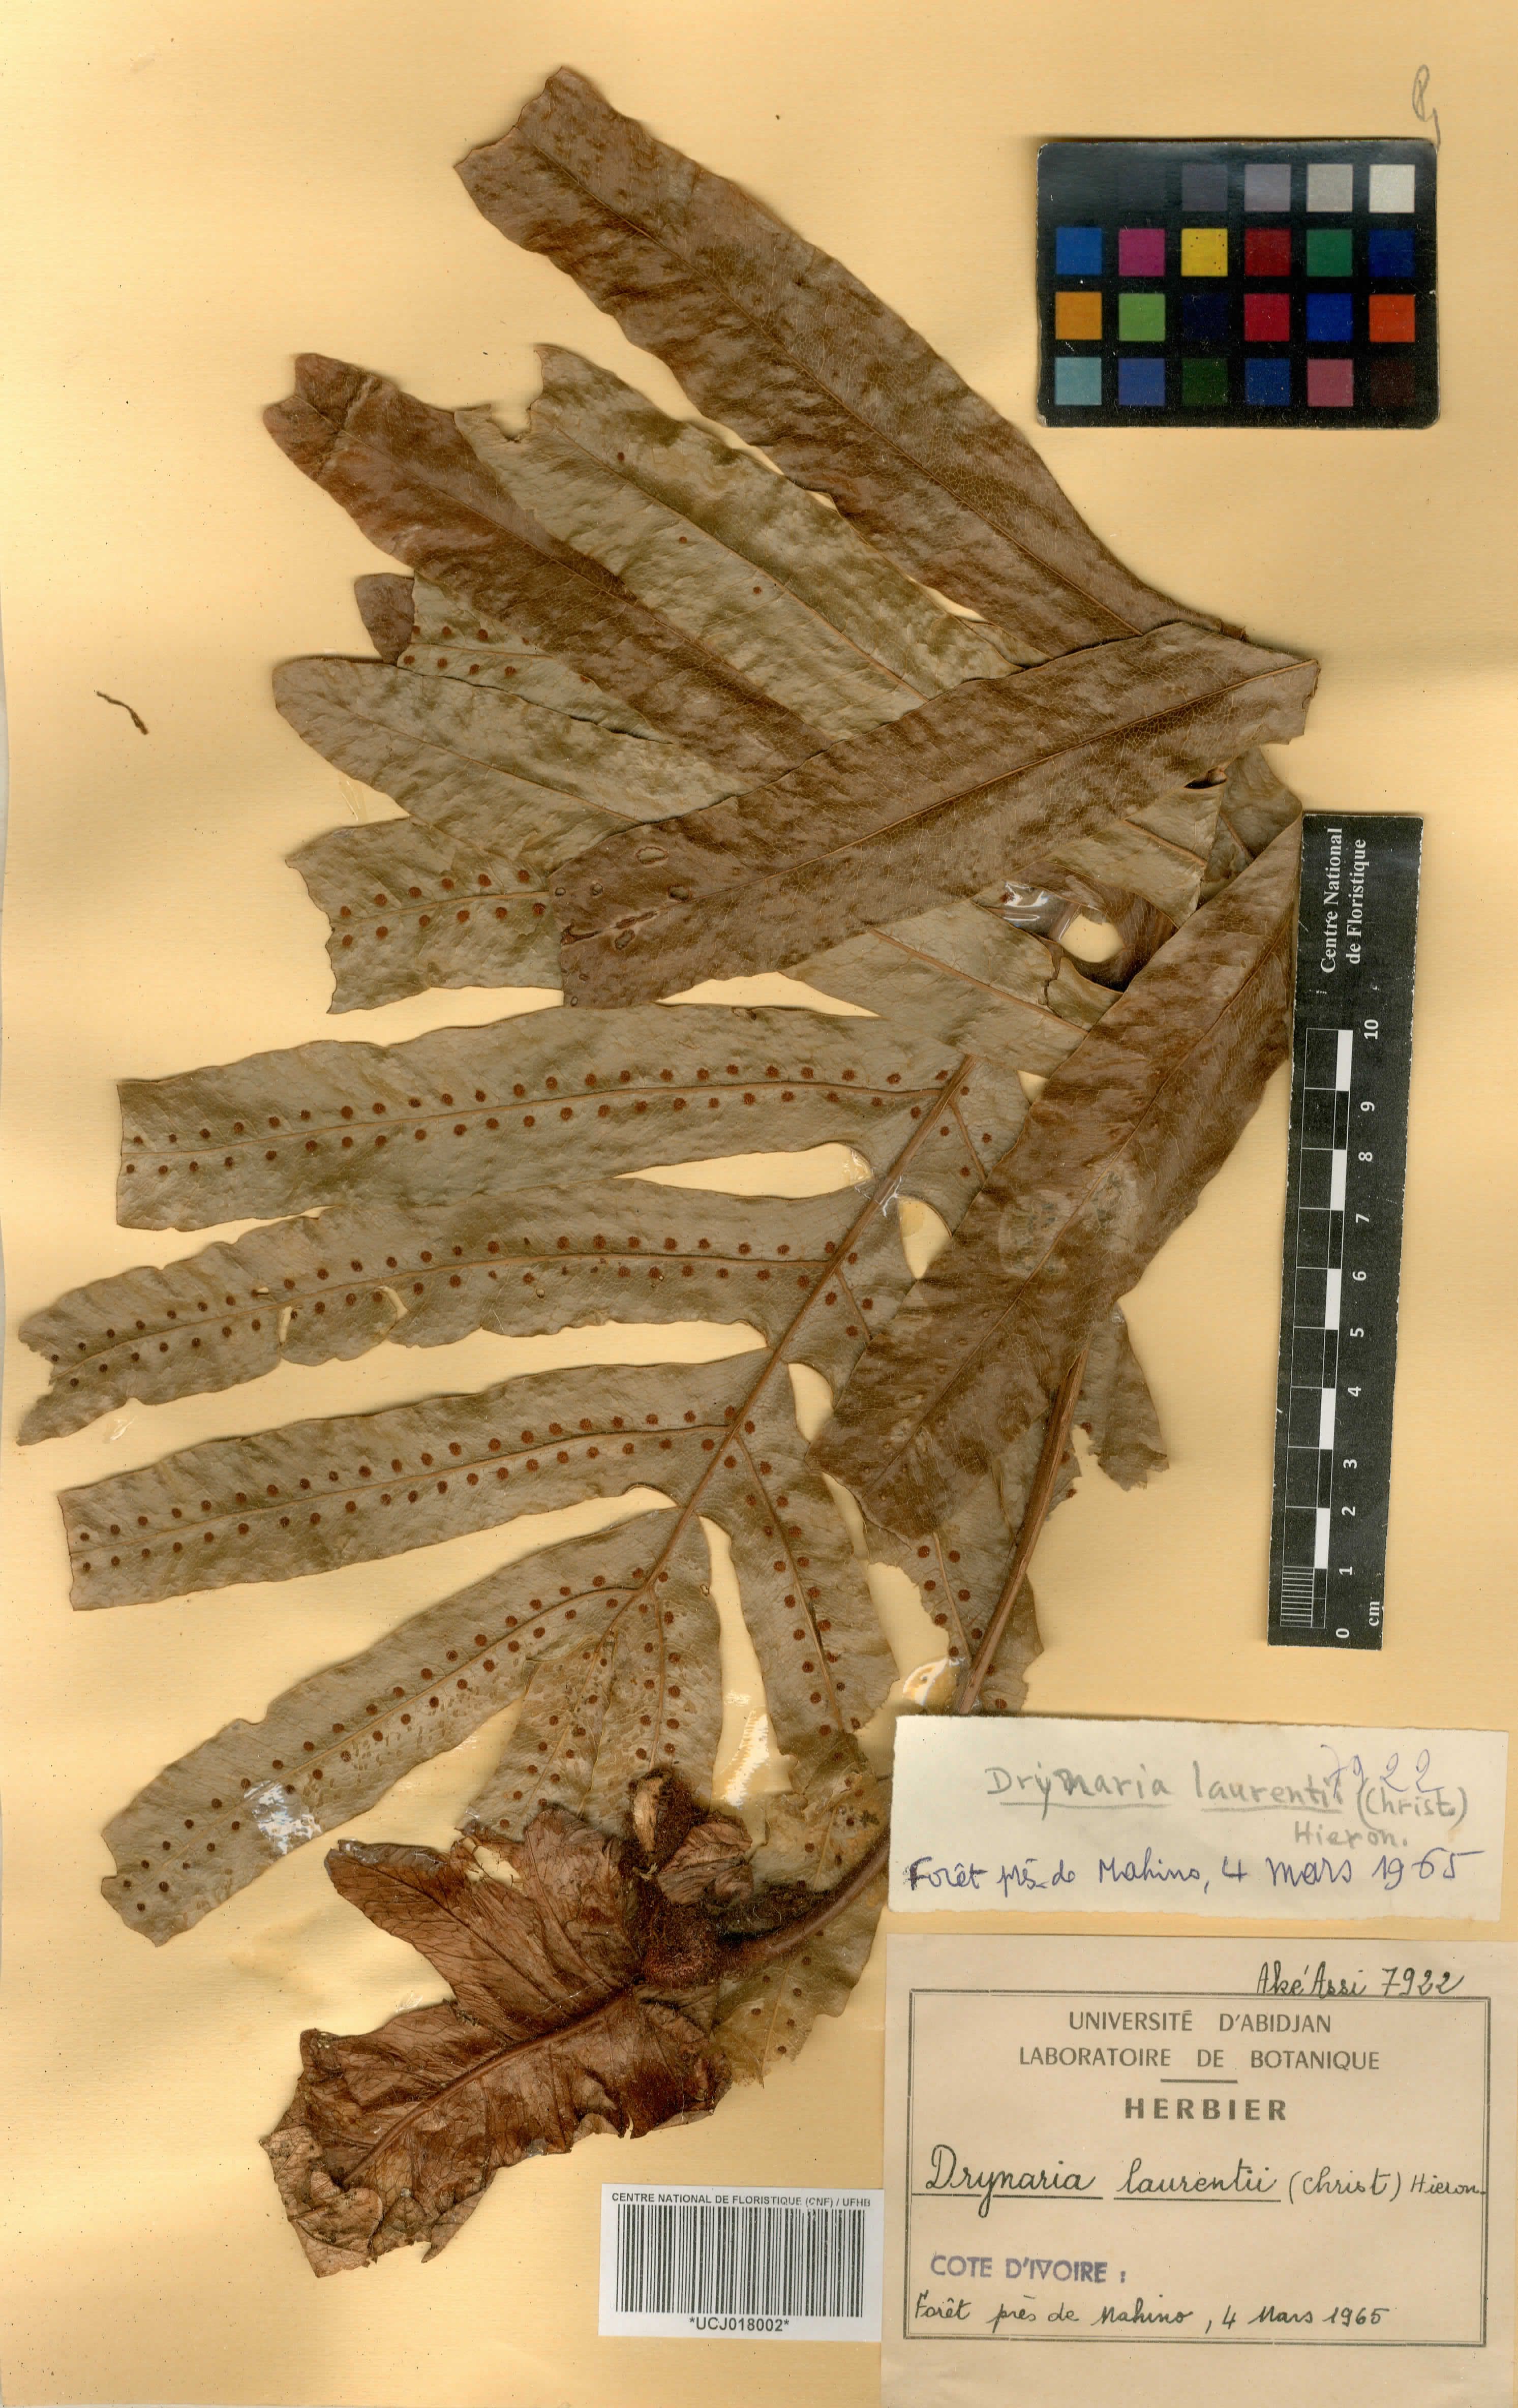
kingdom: Plantae
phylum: Tracheophyta
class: Polypodiopsida
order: Polypodiales
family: Polypodiaceae
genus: Drynaria
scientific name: Drynaria laurentii
